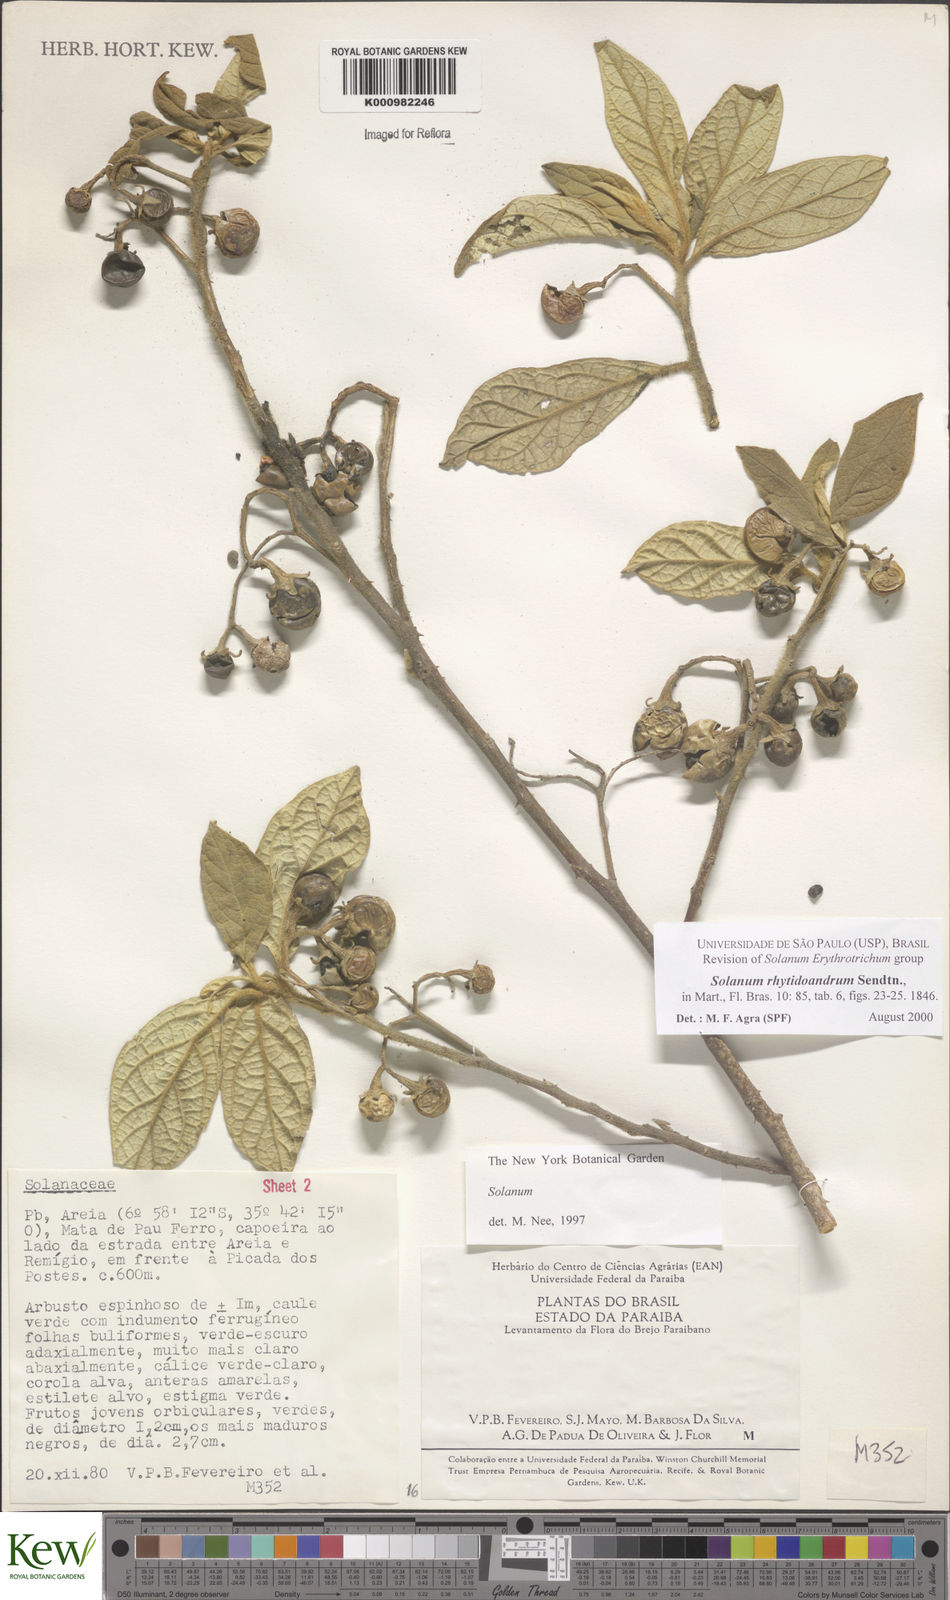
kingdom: Plantae
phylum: Tracheophyta
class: Magnoliopsida
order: Solanales
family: Solanaceae
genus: Solanum
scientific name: Solanum rhytidoandrum
